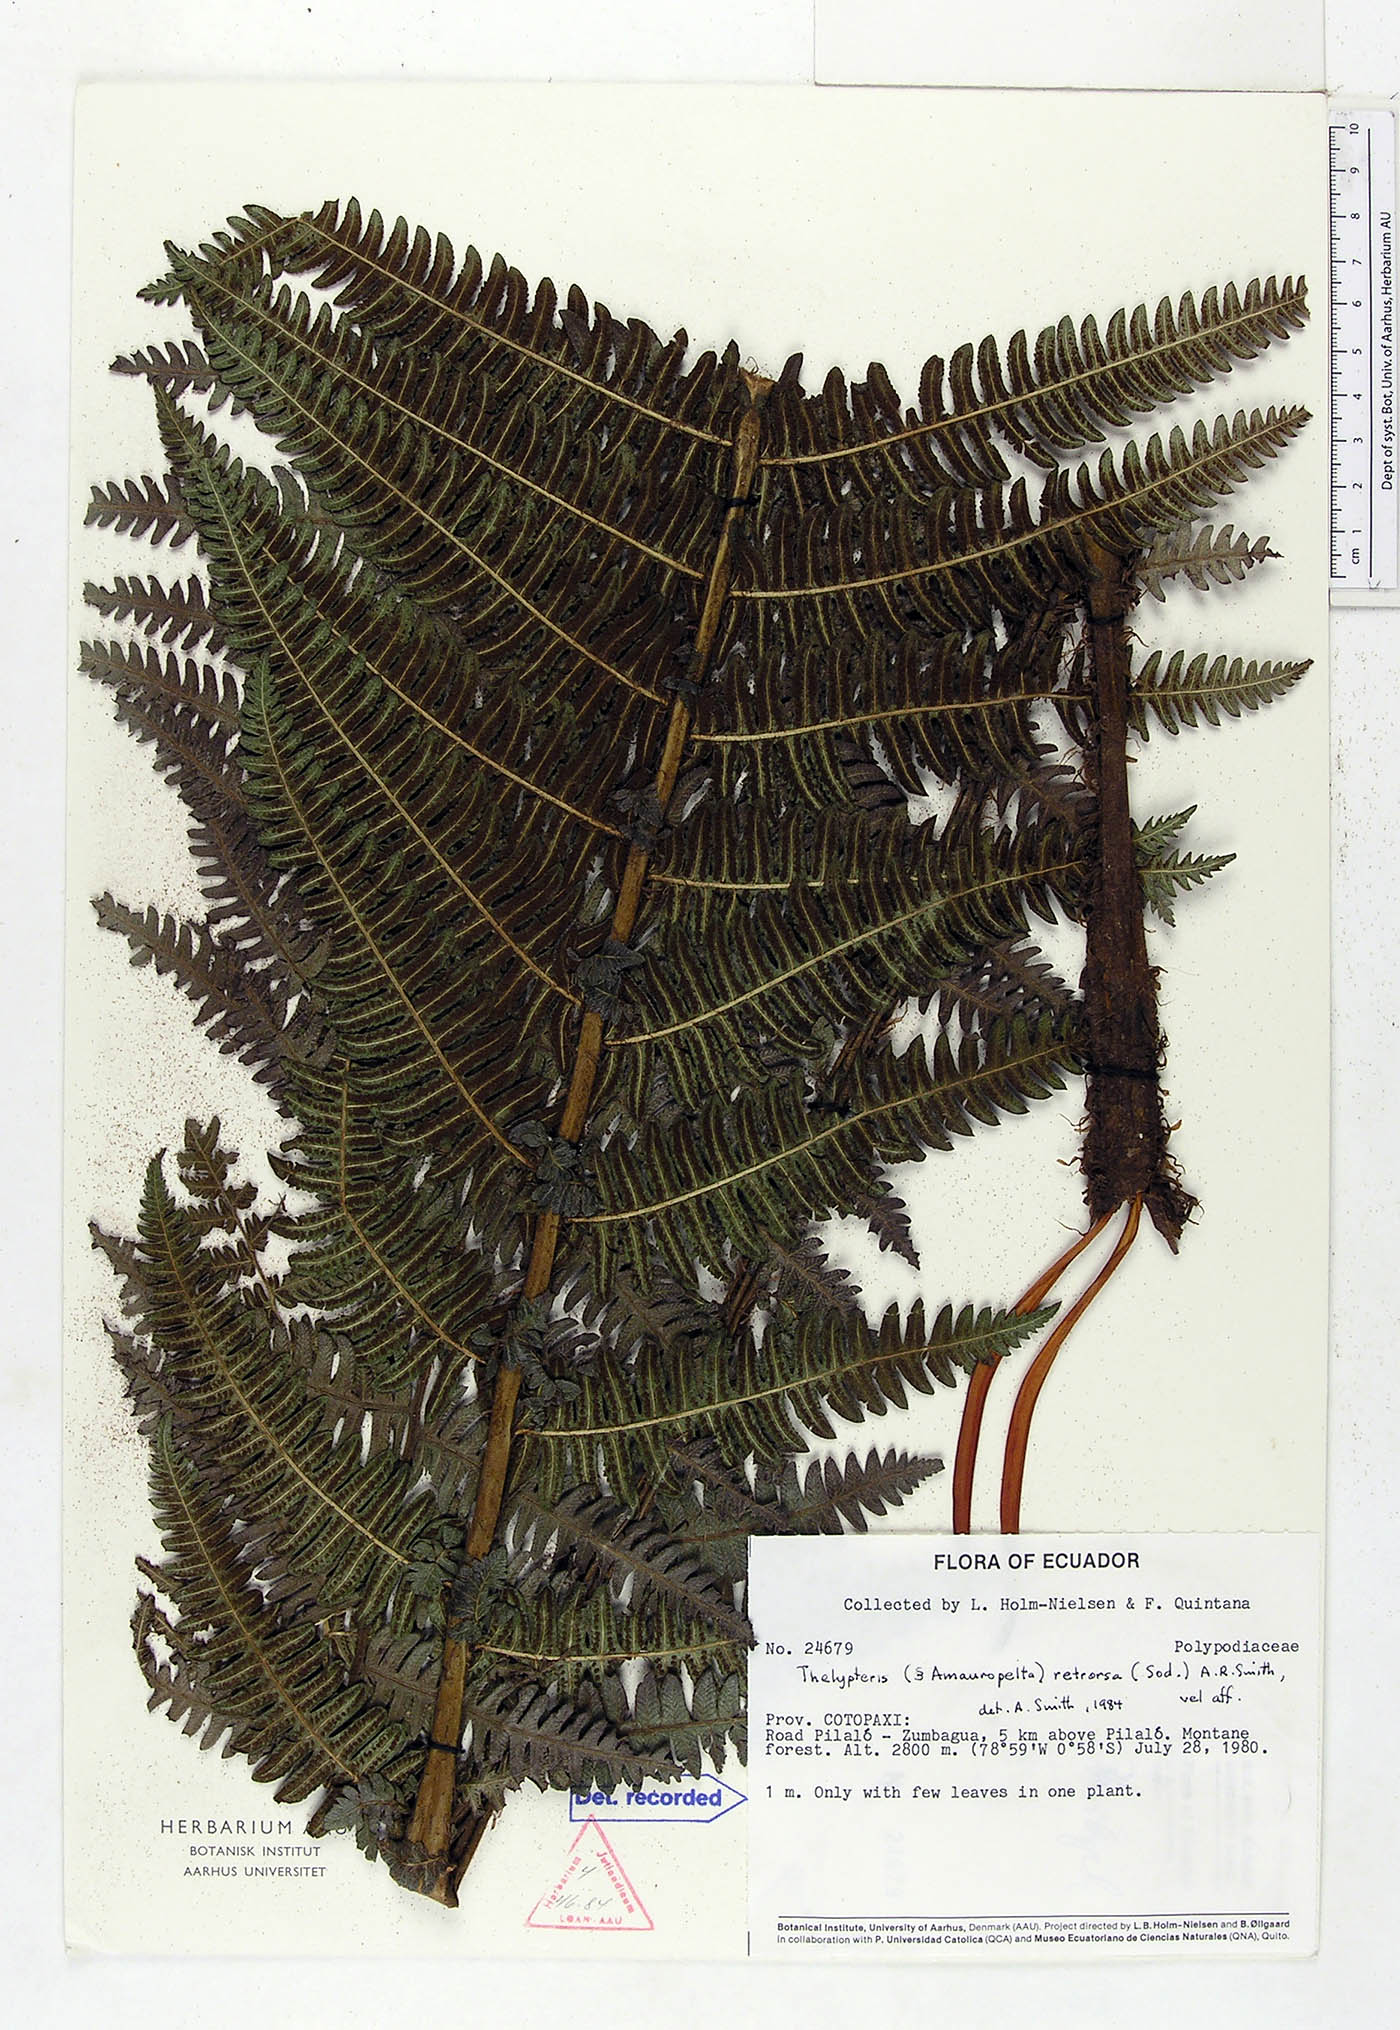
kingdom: Plantae
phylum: Tracheophyta
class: Polypodiopsida
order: Polypodiales
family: Thelypteridaceae
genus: Amauropelta
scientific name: Amauropelta pilosohispida
